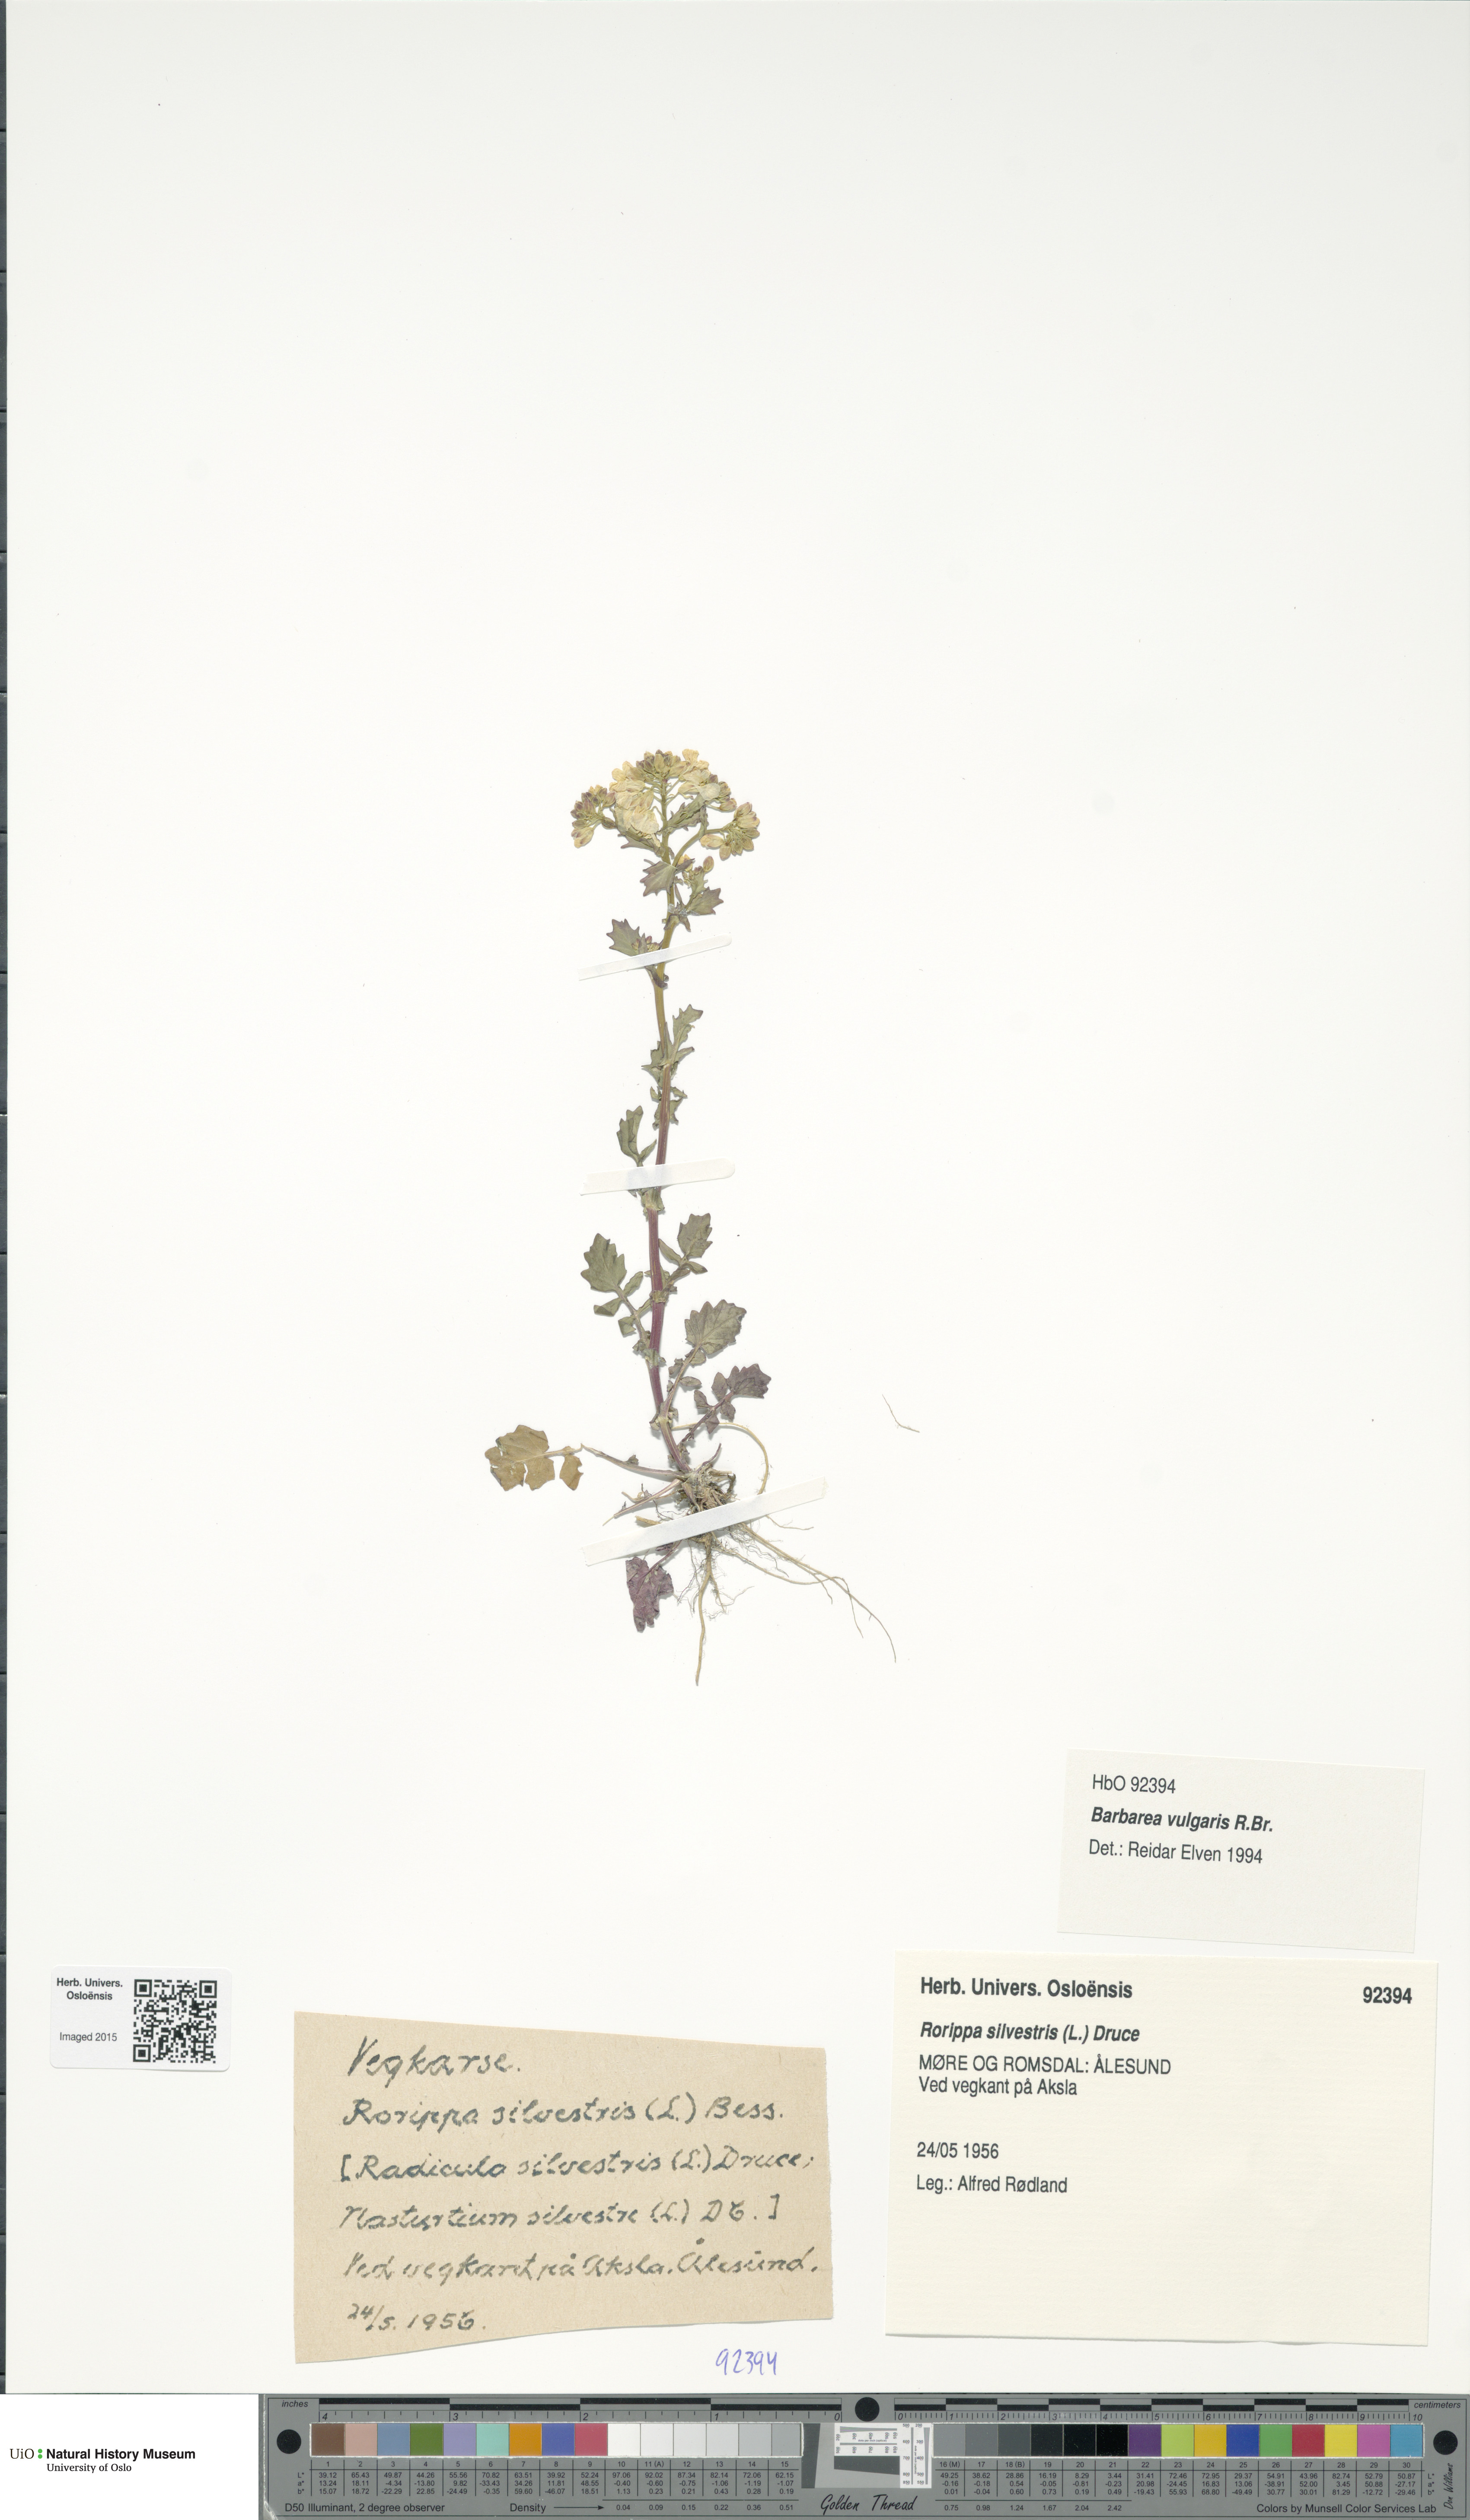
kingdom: Plantae
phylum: Tracheophyta
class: Magnoliopsida
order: Brassicales
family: Brassicaceae
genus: Barbarea
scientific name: Barbarea vulgaris
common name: Cressy-greens
